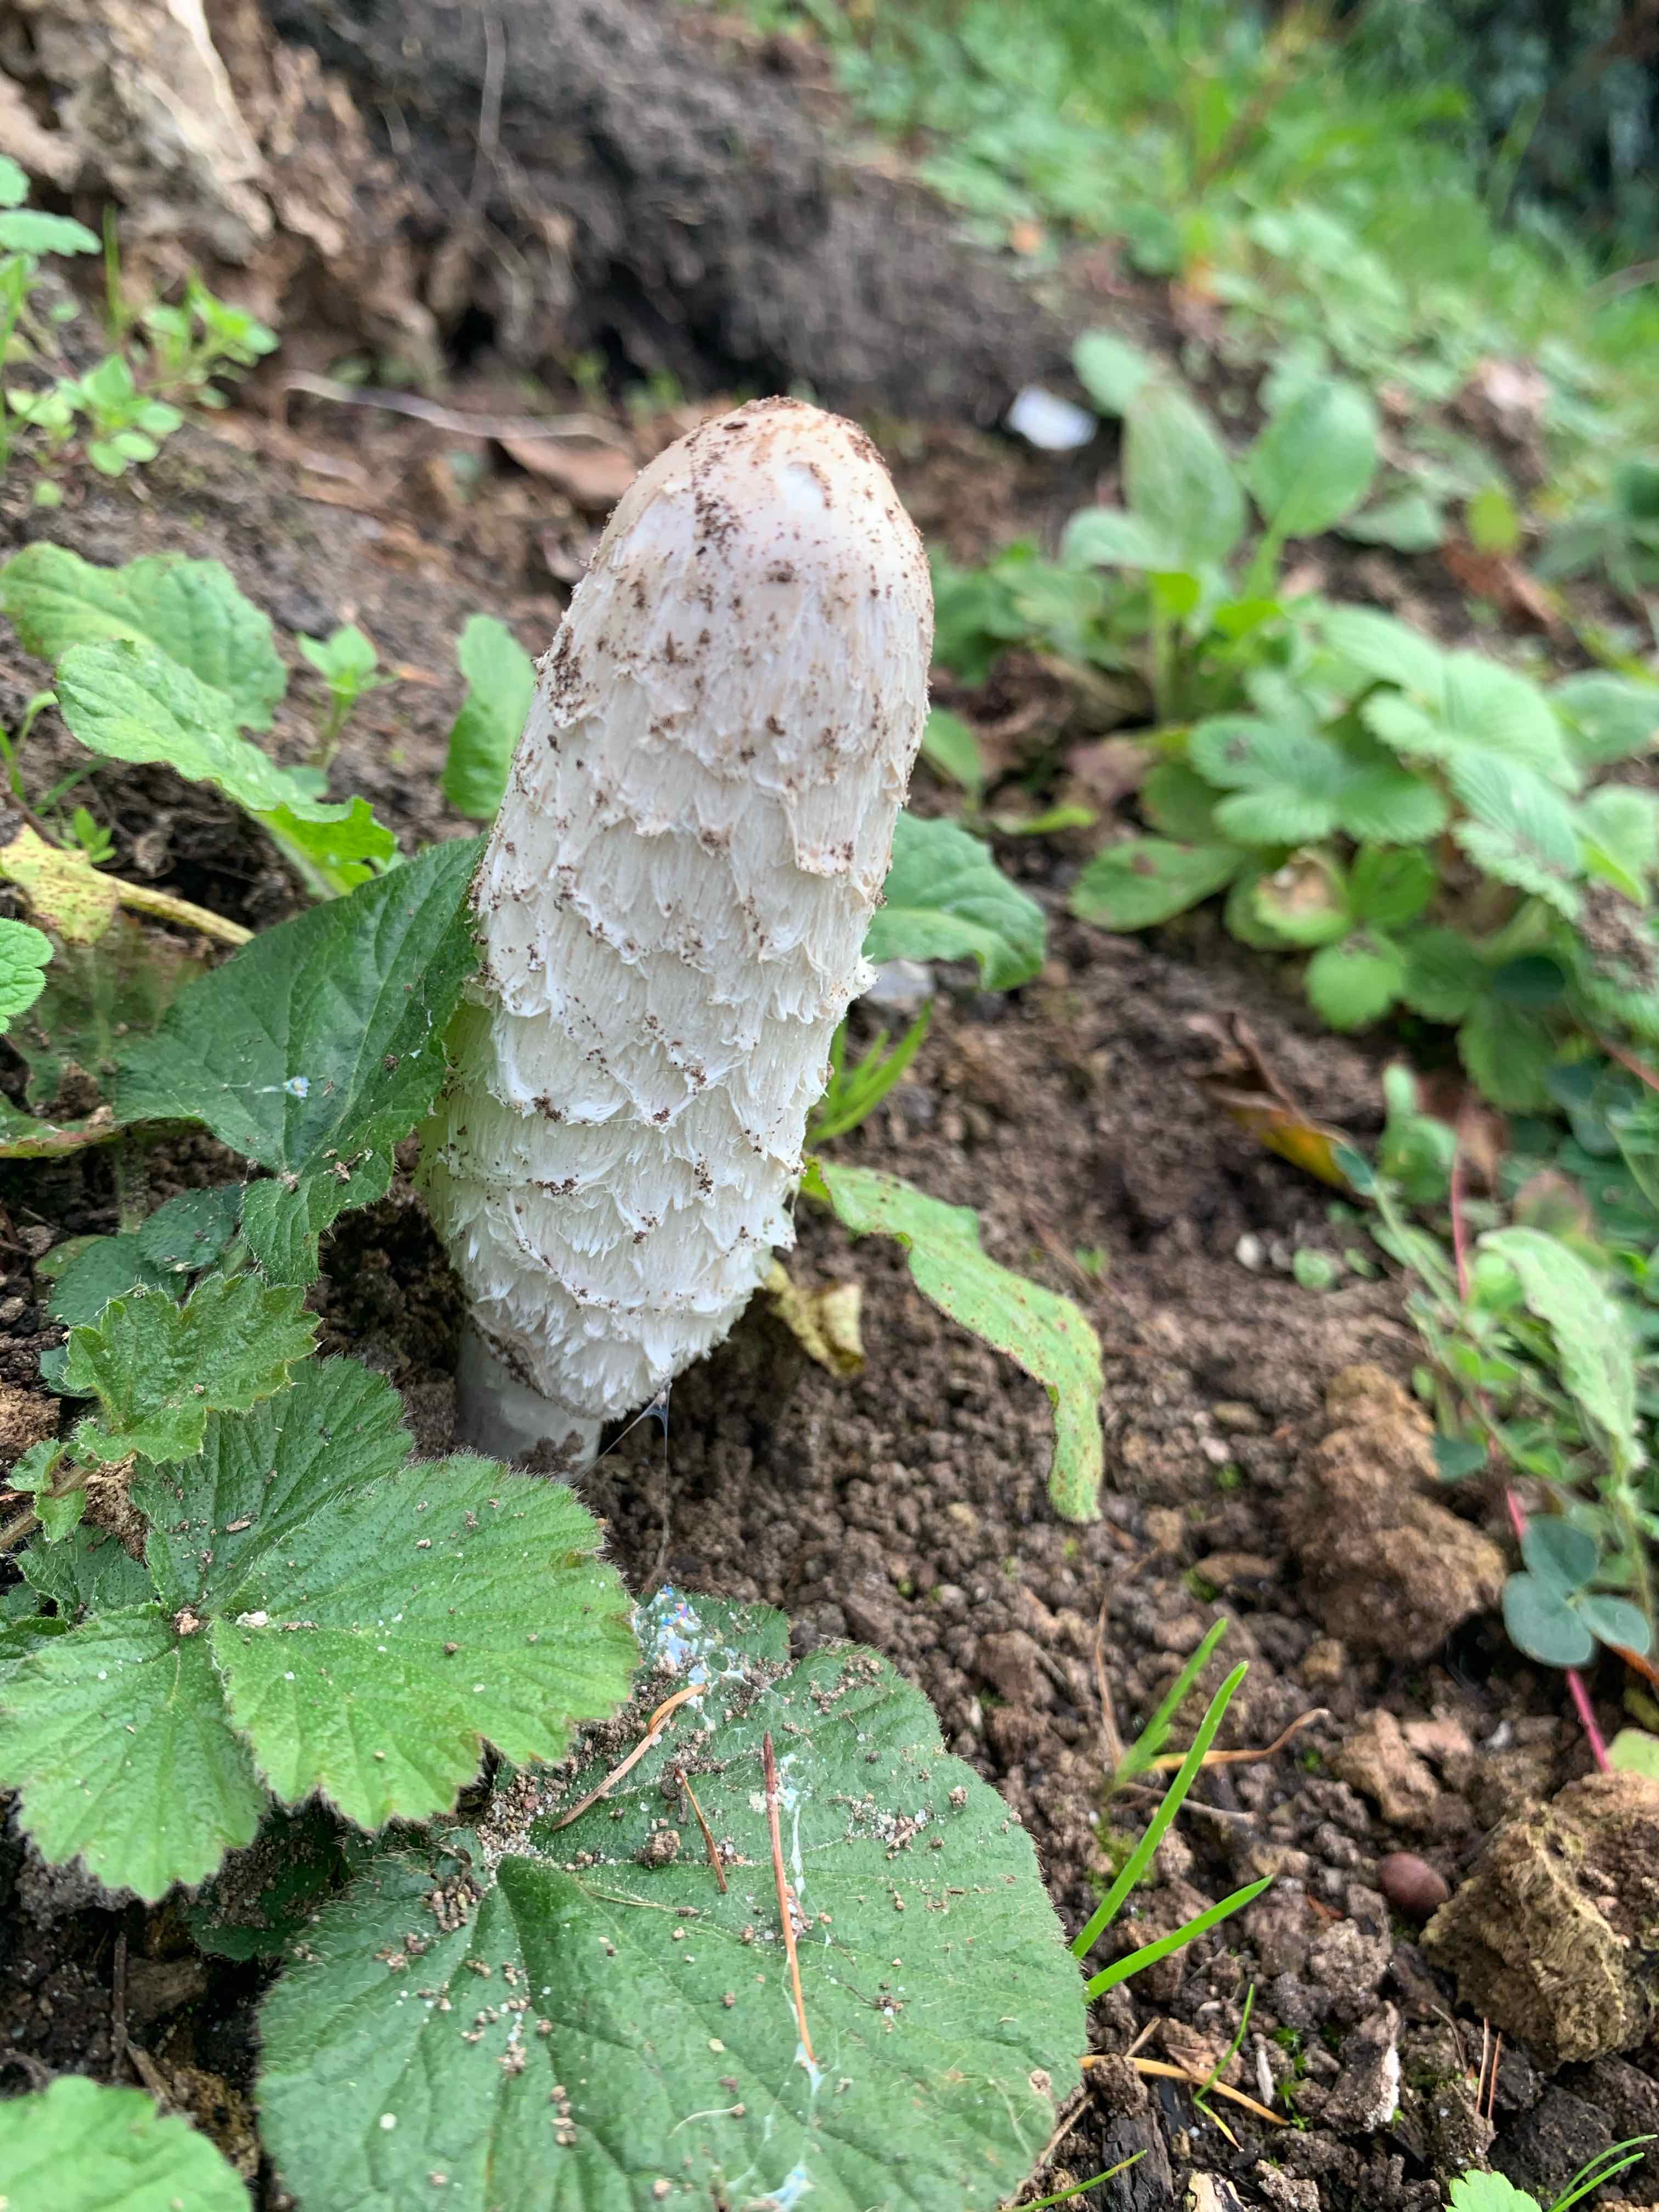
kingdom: Fungi
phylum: Basidiomycota
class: Agaricomycetes
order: Agaricales
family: Agaricaceae
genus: Coprinus
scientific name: Coprinus comatus
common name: stor parykhat
